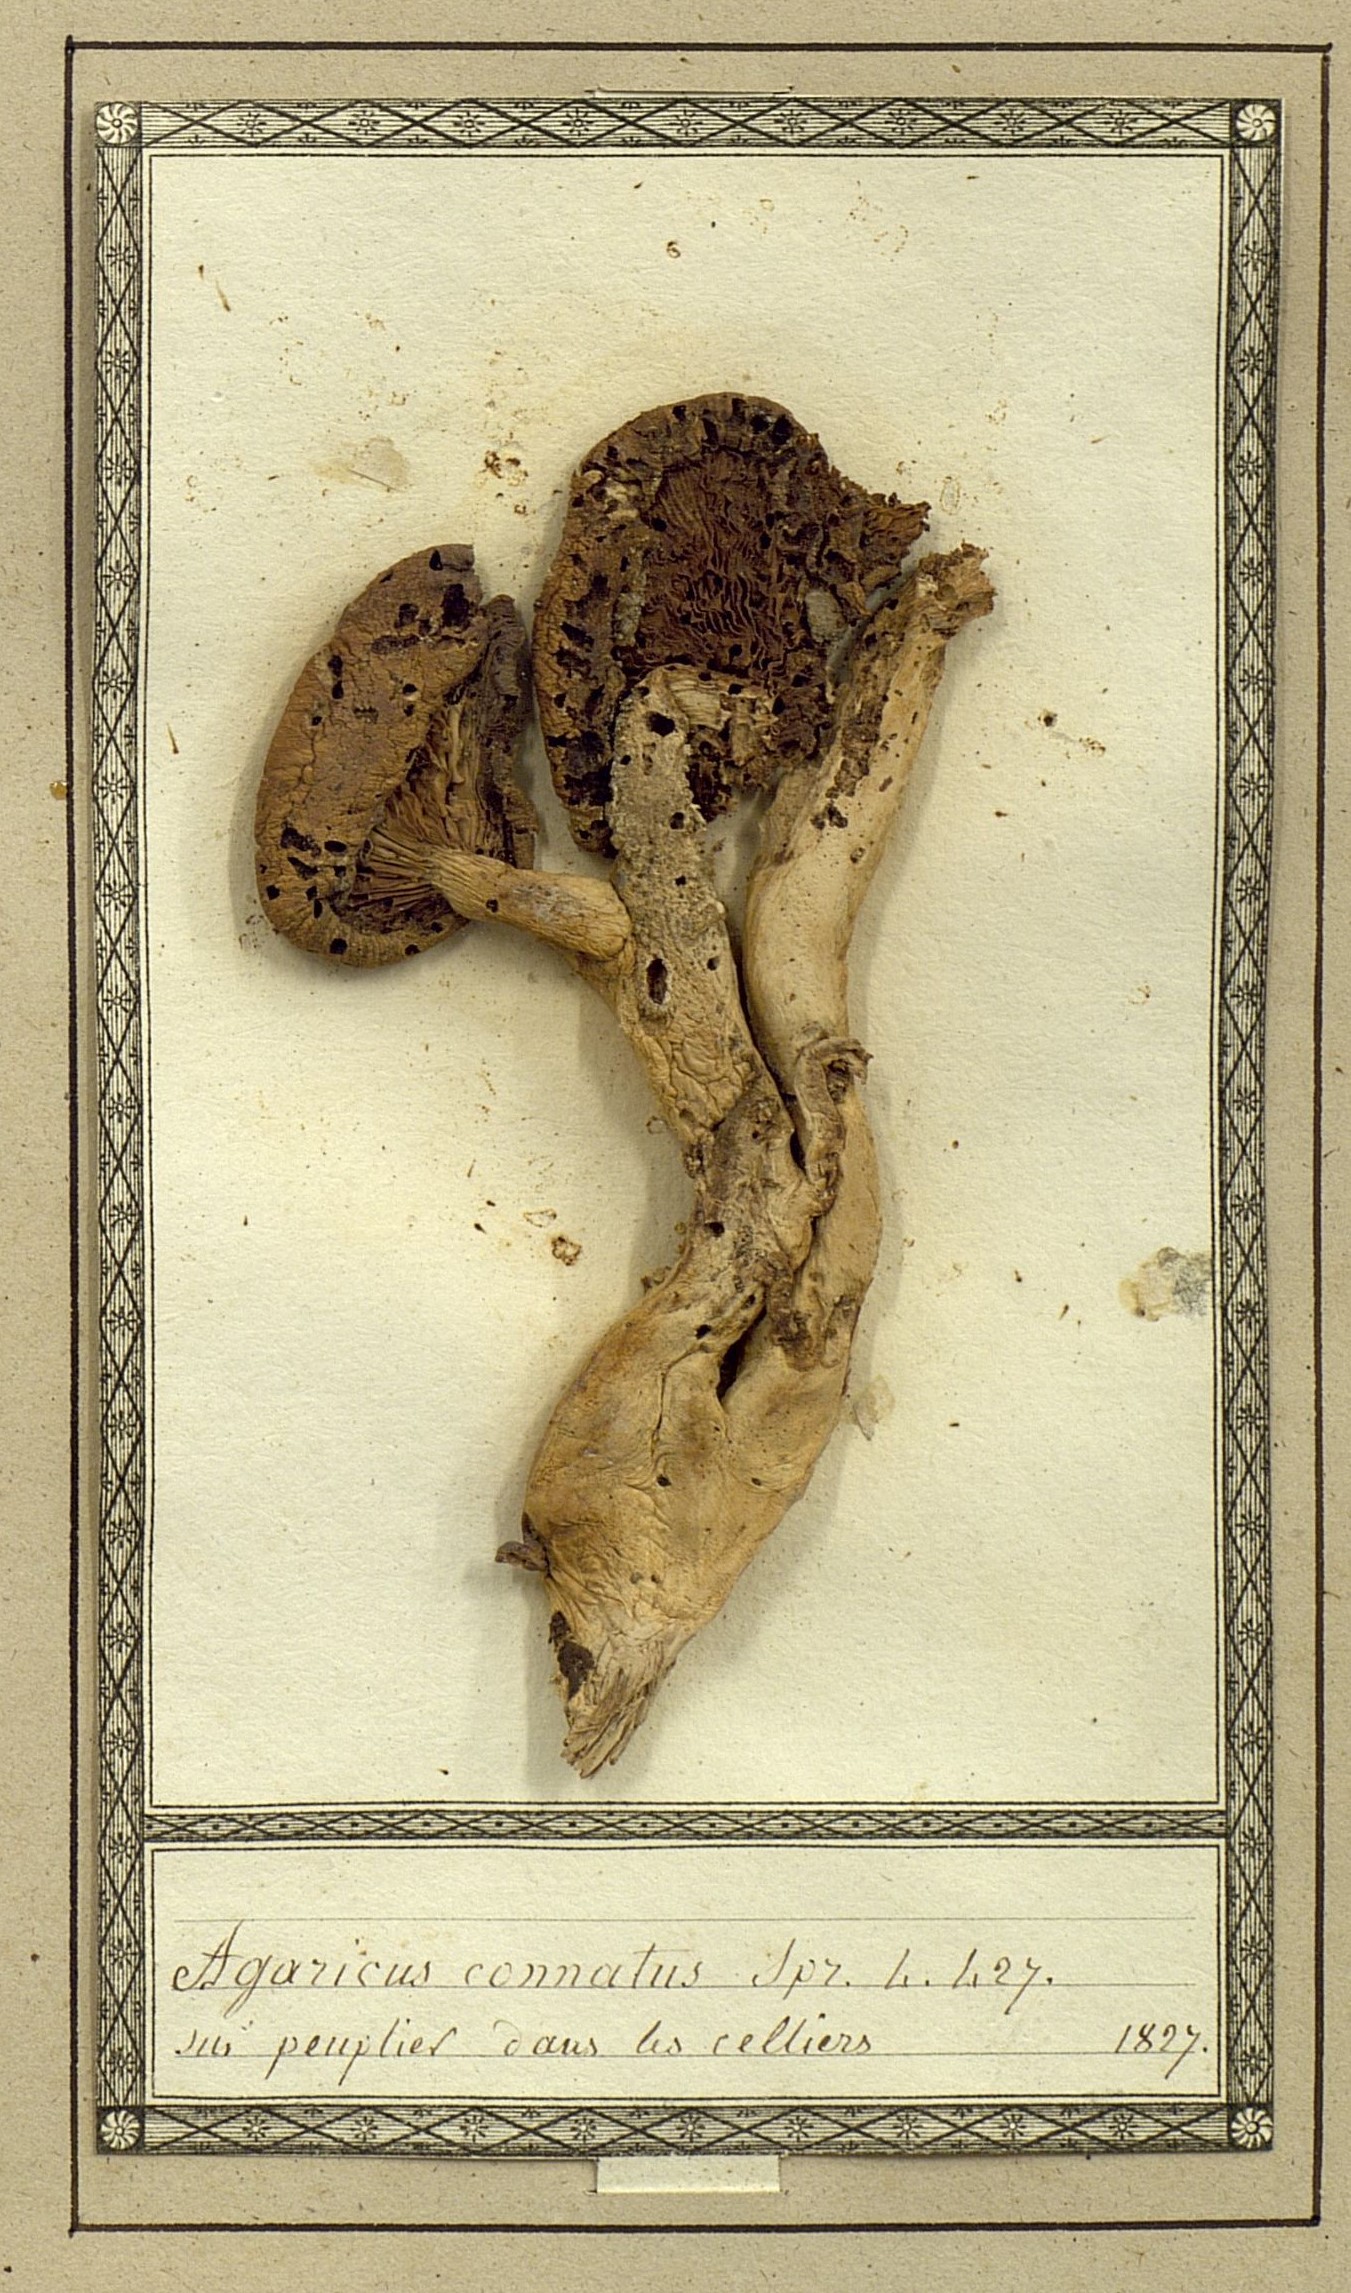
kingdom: Fungi
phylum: Basidiomycota
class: Agaricomycetes
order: Agaricales
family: Agaricaceae
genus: Coprinus
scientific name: Coprinus comatus
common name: Lawyer's wig
